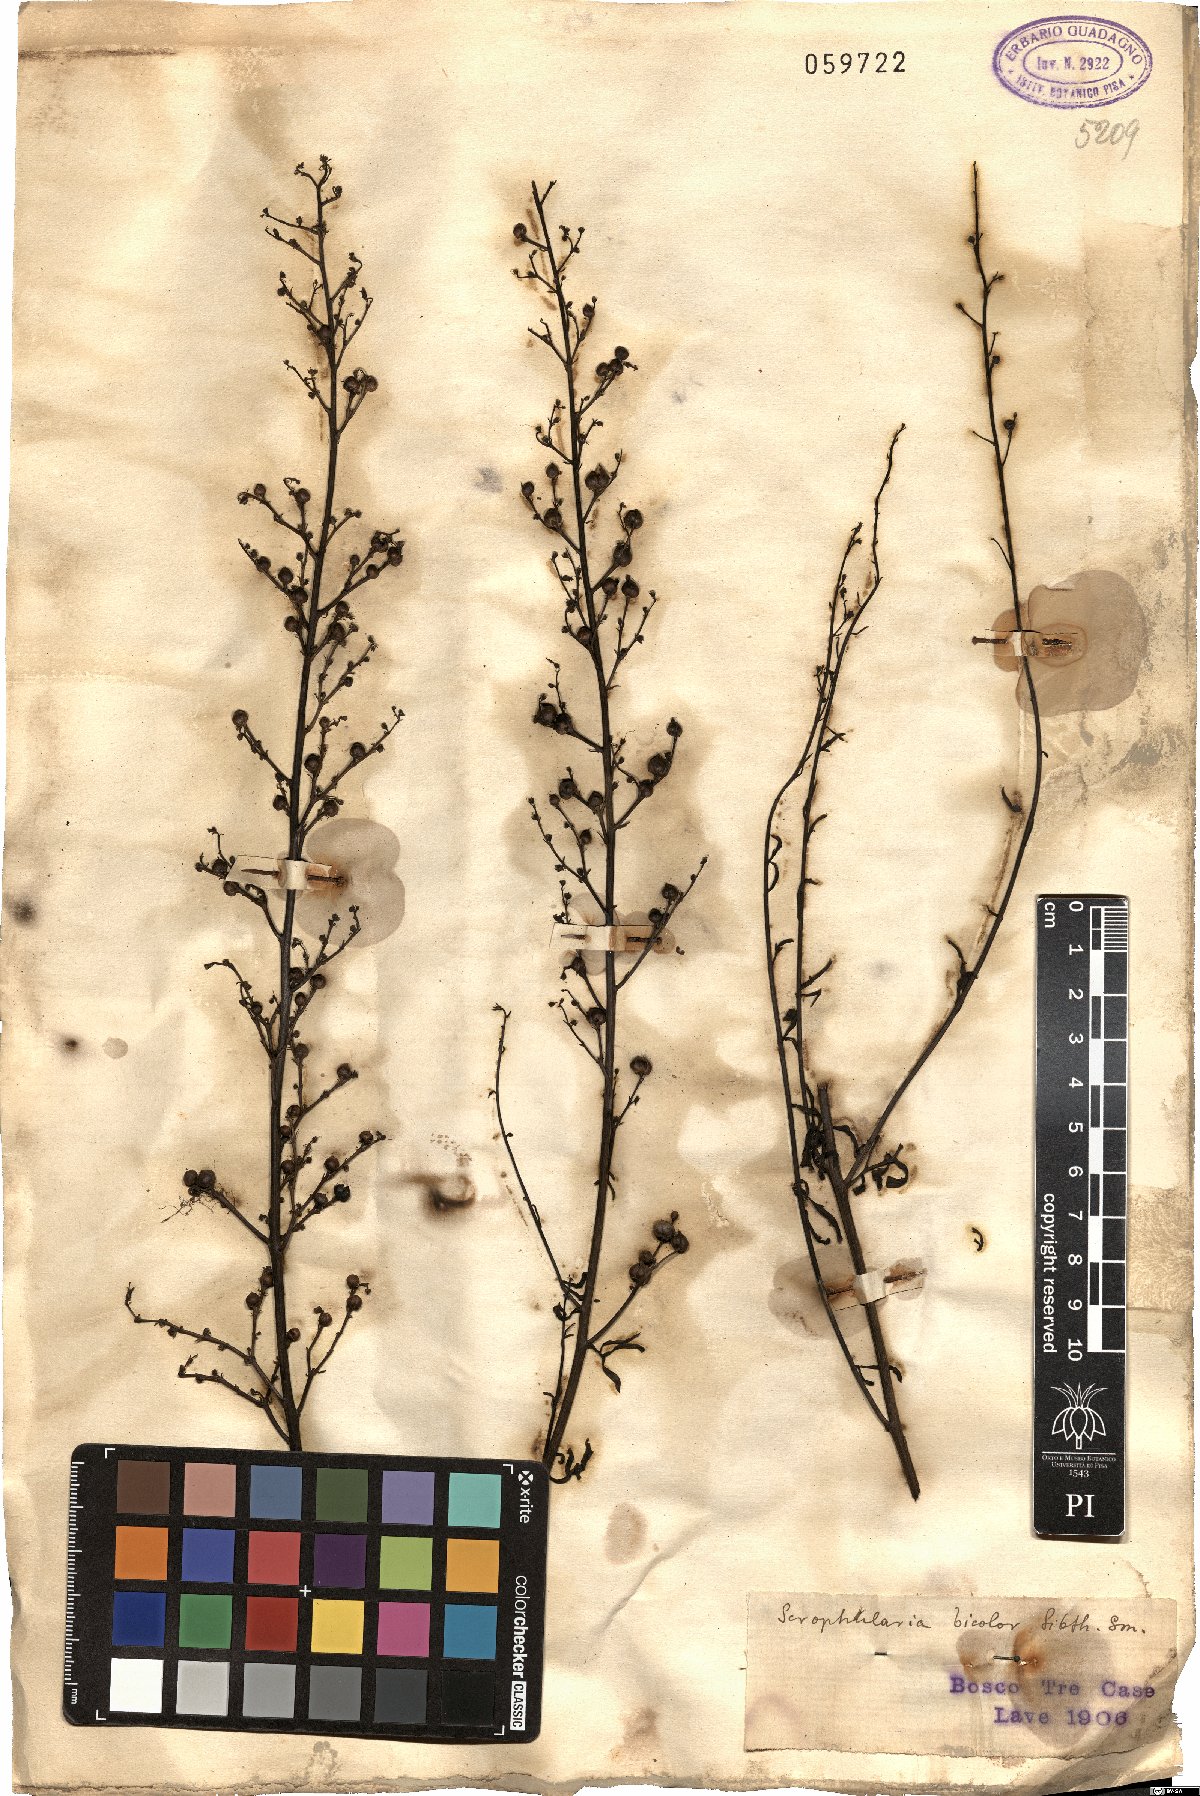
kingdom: Plantae
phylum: Tracheophyta
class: Magnoliopsida
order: Lamiales
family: Scrophulariaceae
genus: Scrophularia
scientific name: Scrophularia canina
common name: French figwort
